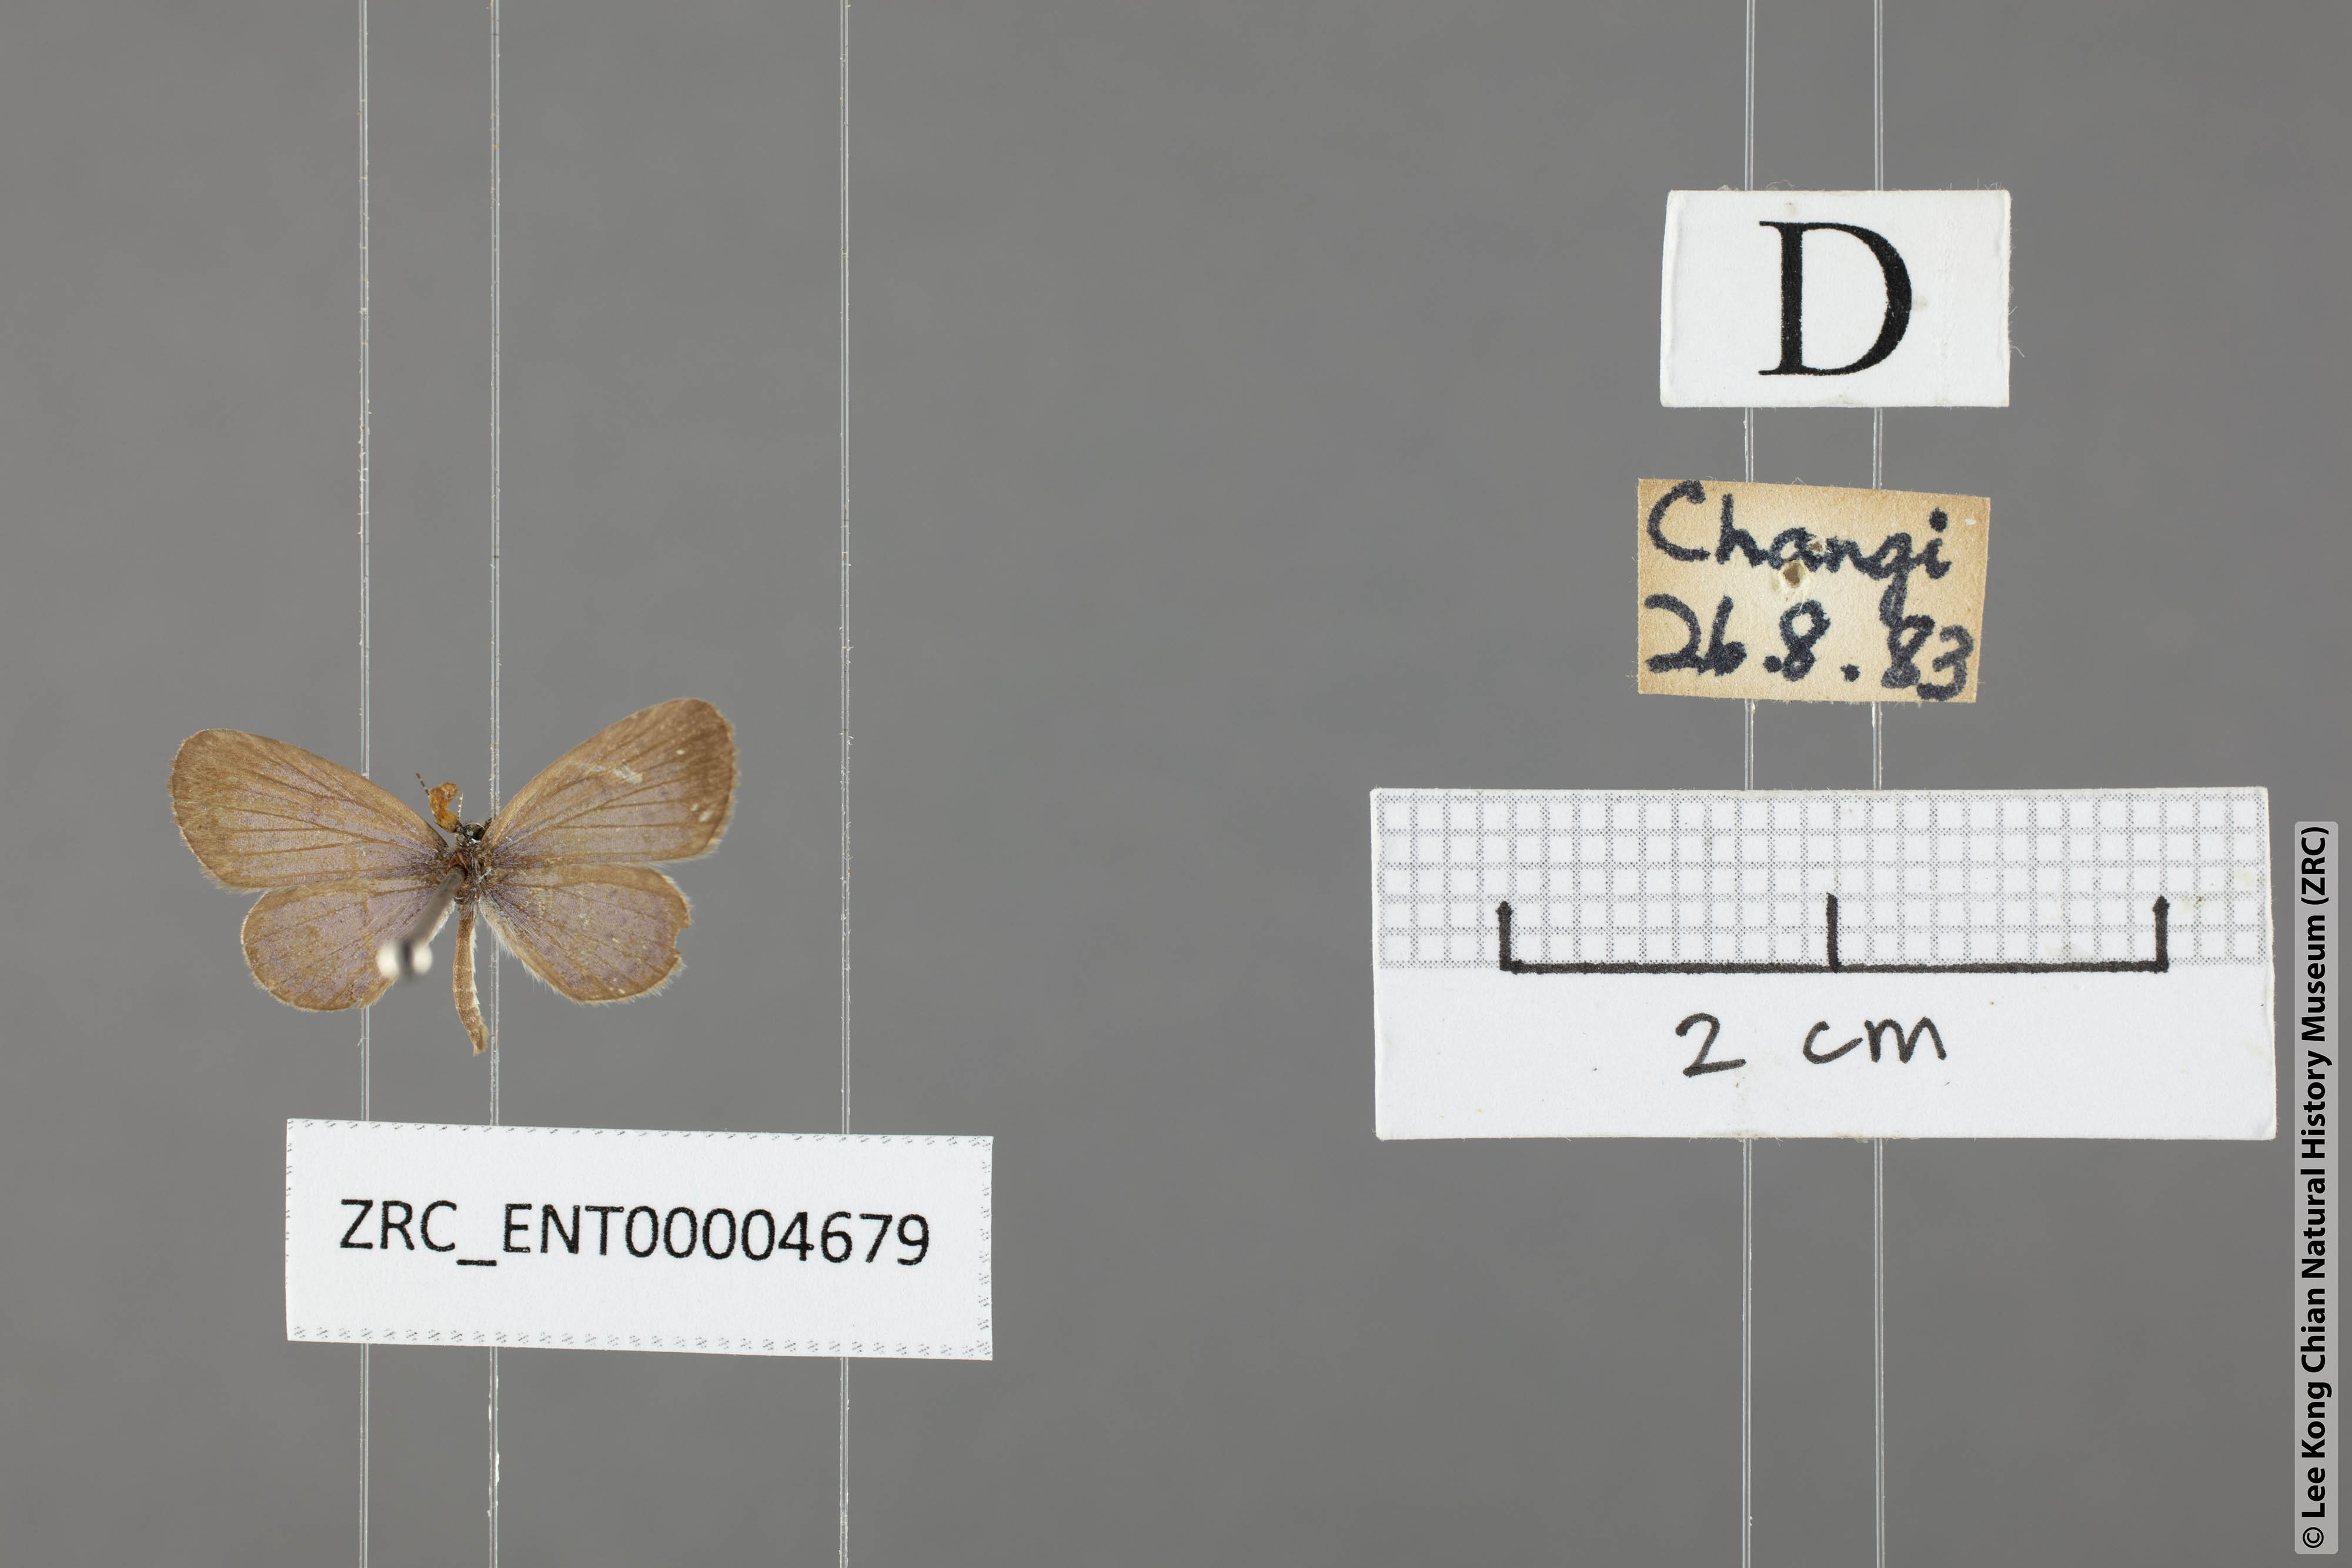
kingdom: Animalia
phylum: Arthropoda
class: Insecta
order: Lepidoptera
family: Lycaenidae
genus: Zizula
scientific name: Zizula hylax
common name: Gaika blue
